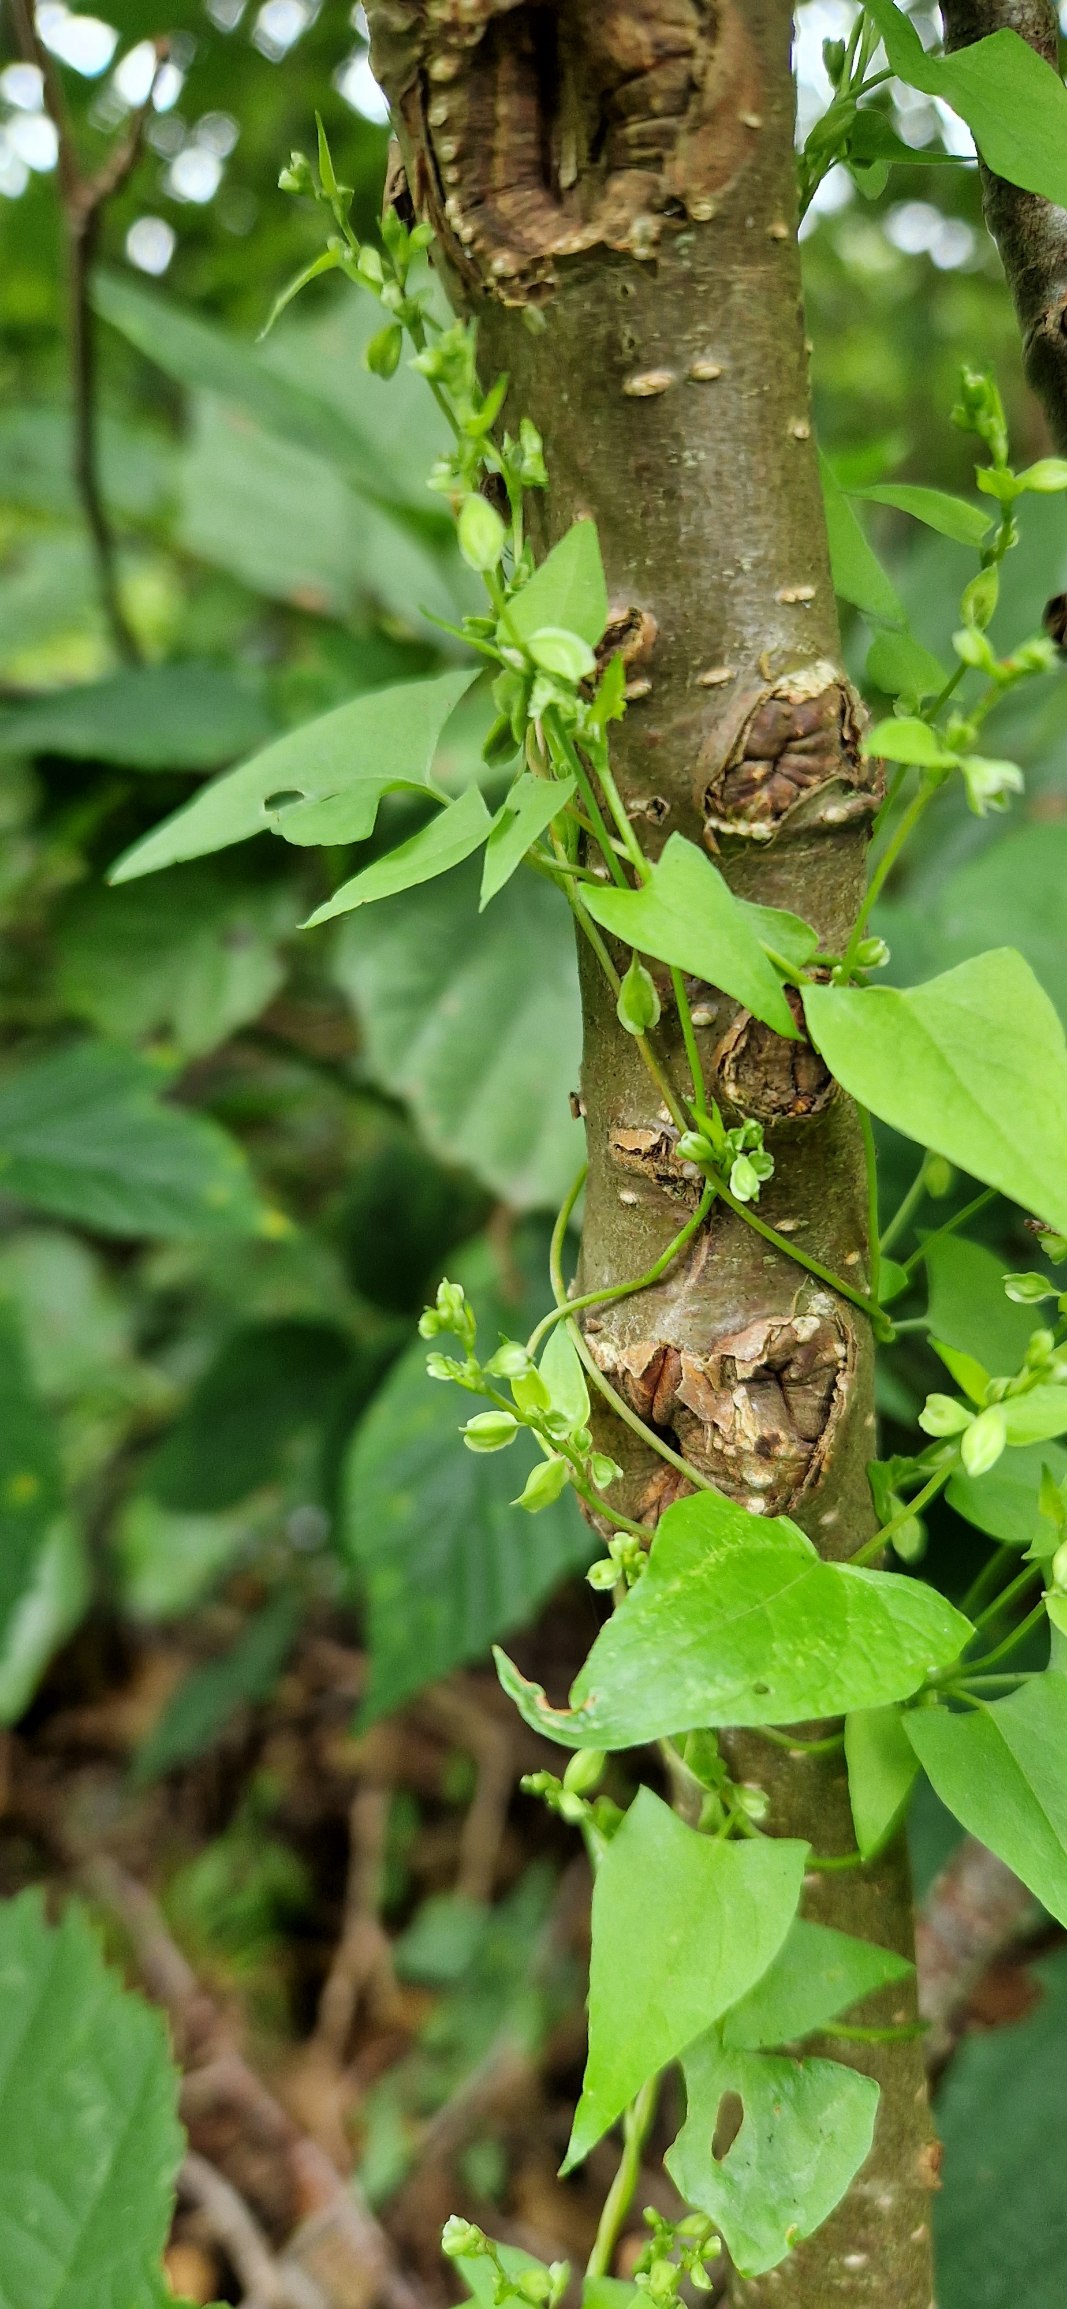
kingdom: Plantae
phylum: Tracheophyta
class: Magnoliopsida
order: Caryophyllales
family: Polygonaceae
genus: Fallopia
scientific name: Fallopia dumetorum
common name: Vinge-pileurt
